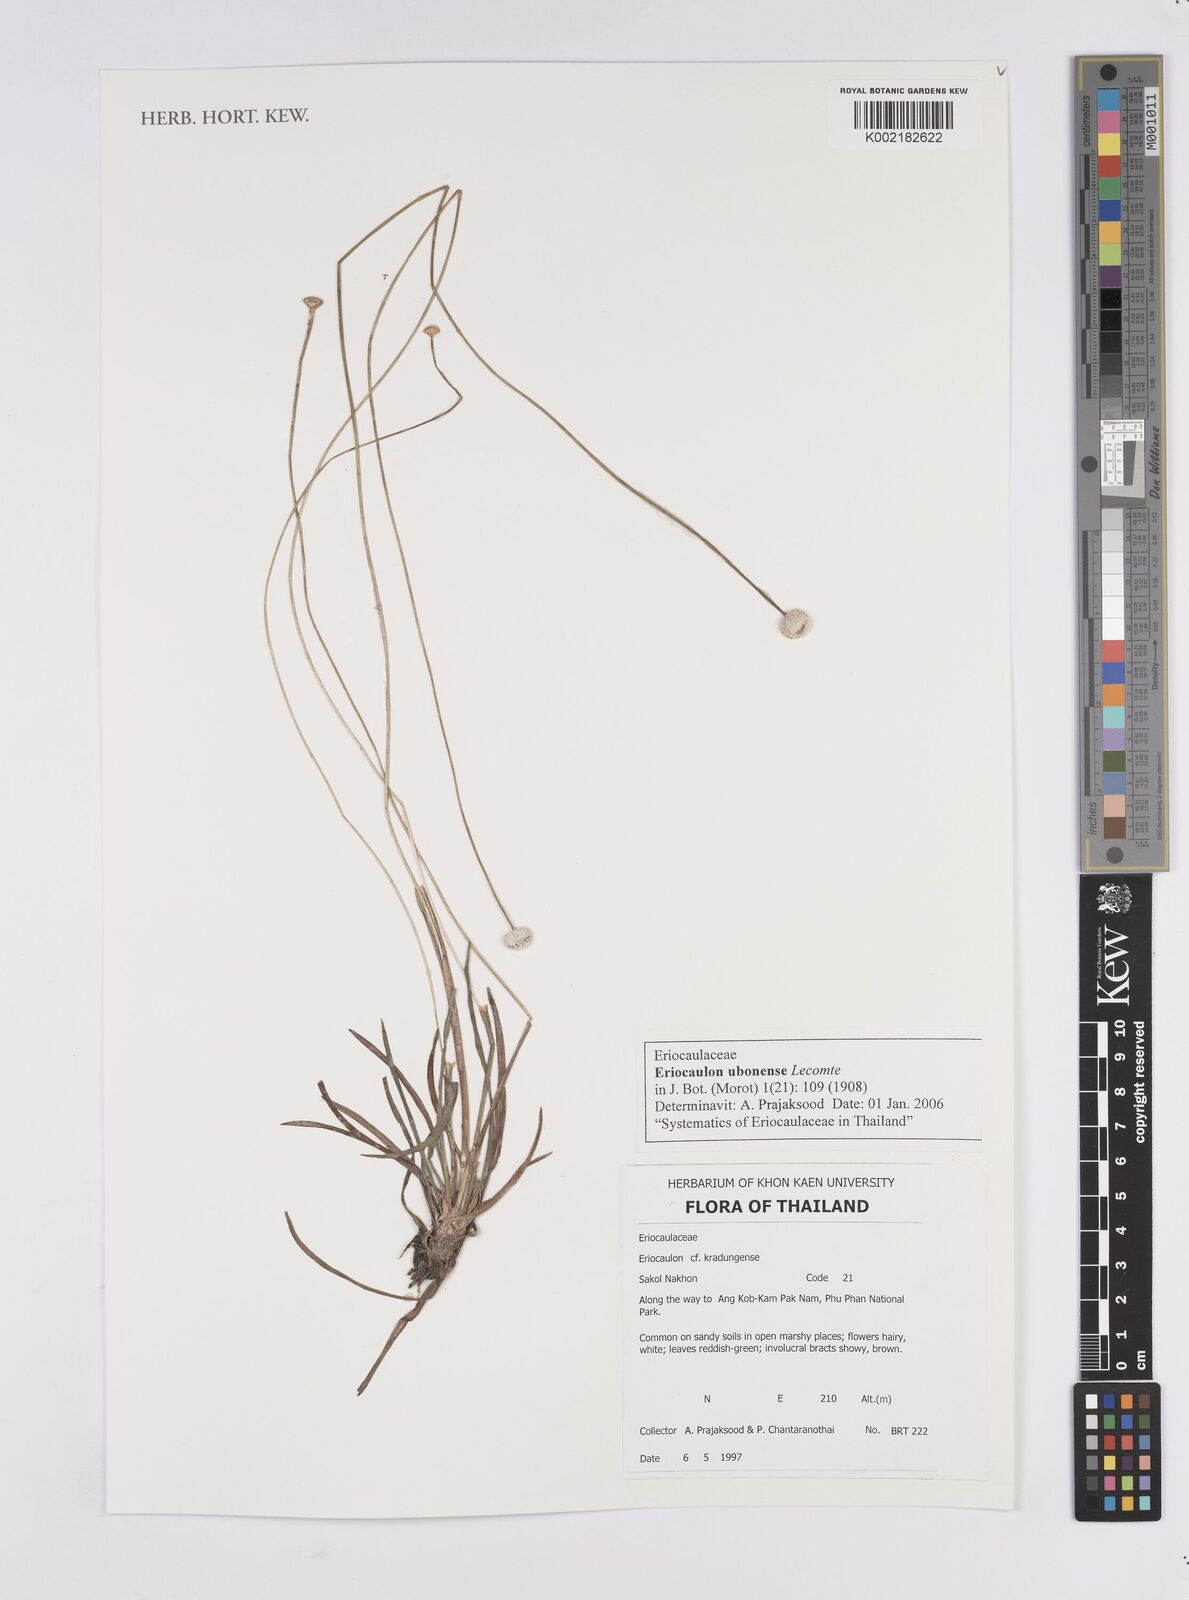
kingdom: Plantae
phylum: Tracheophyta
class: Liliopsida
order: Poales
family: Eriocaulaceae
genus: Eriocaulon
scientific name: Eriocaulon ubonense
